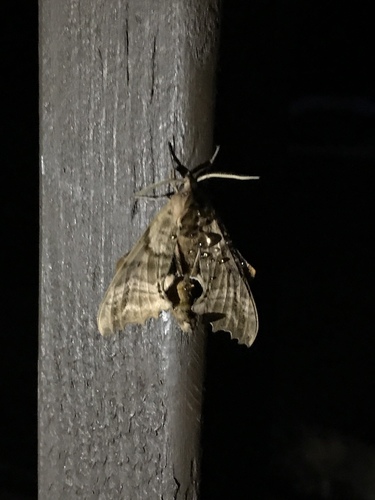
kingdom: Animalia
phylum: Arthropoda
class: Insecta
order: Lepidoptera
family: Sphingidae
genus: Paonias
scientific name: Paonias excaecata
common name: Blind-eyed sphinx
